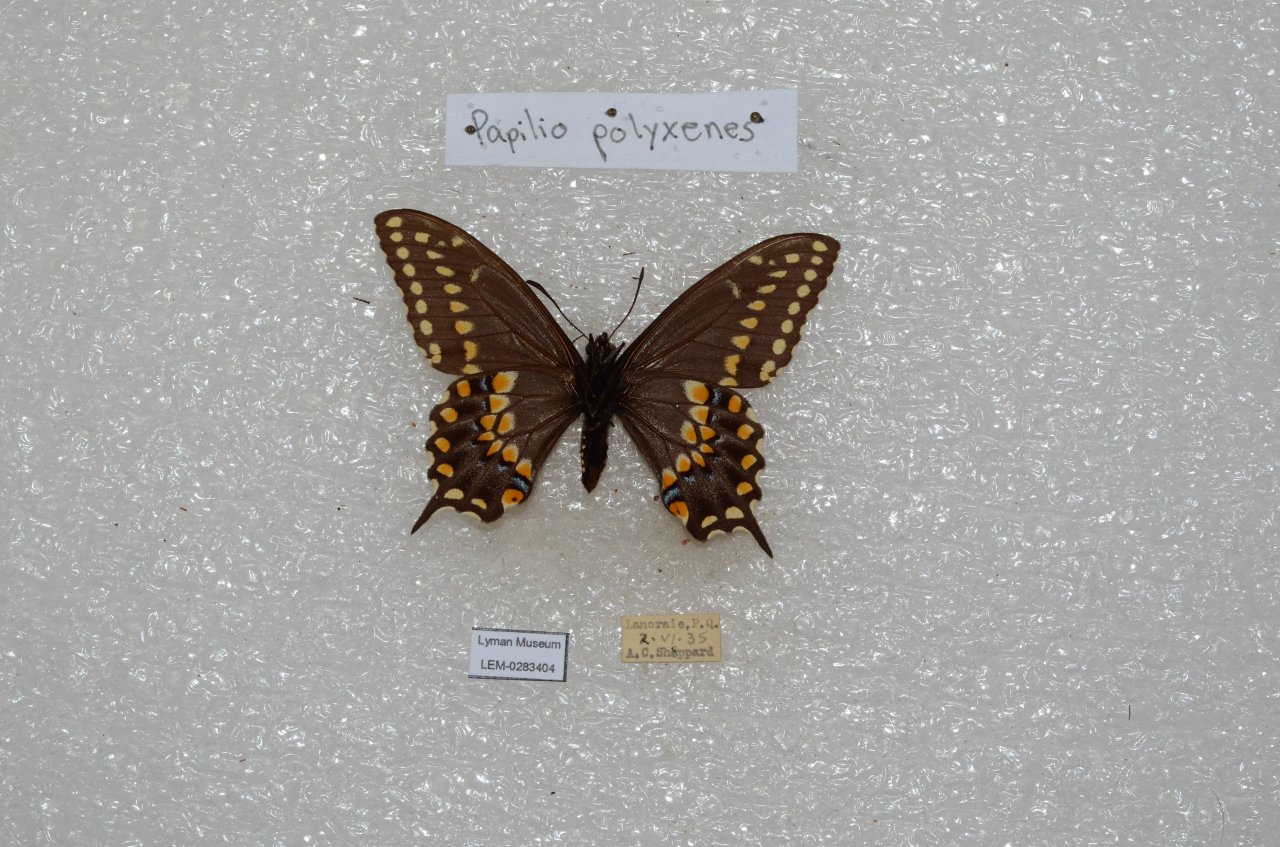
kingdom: Animalia
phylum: Arthropoda
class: Insecta
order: Lepidoptera
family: Papilionidae
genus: Papilio
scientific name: Papilio polyxenes
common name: Black Swallowtail
